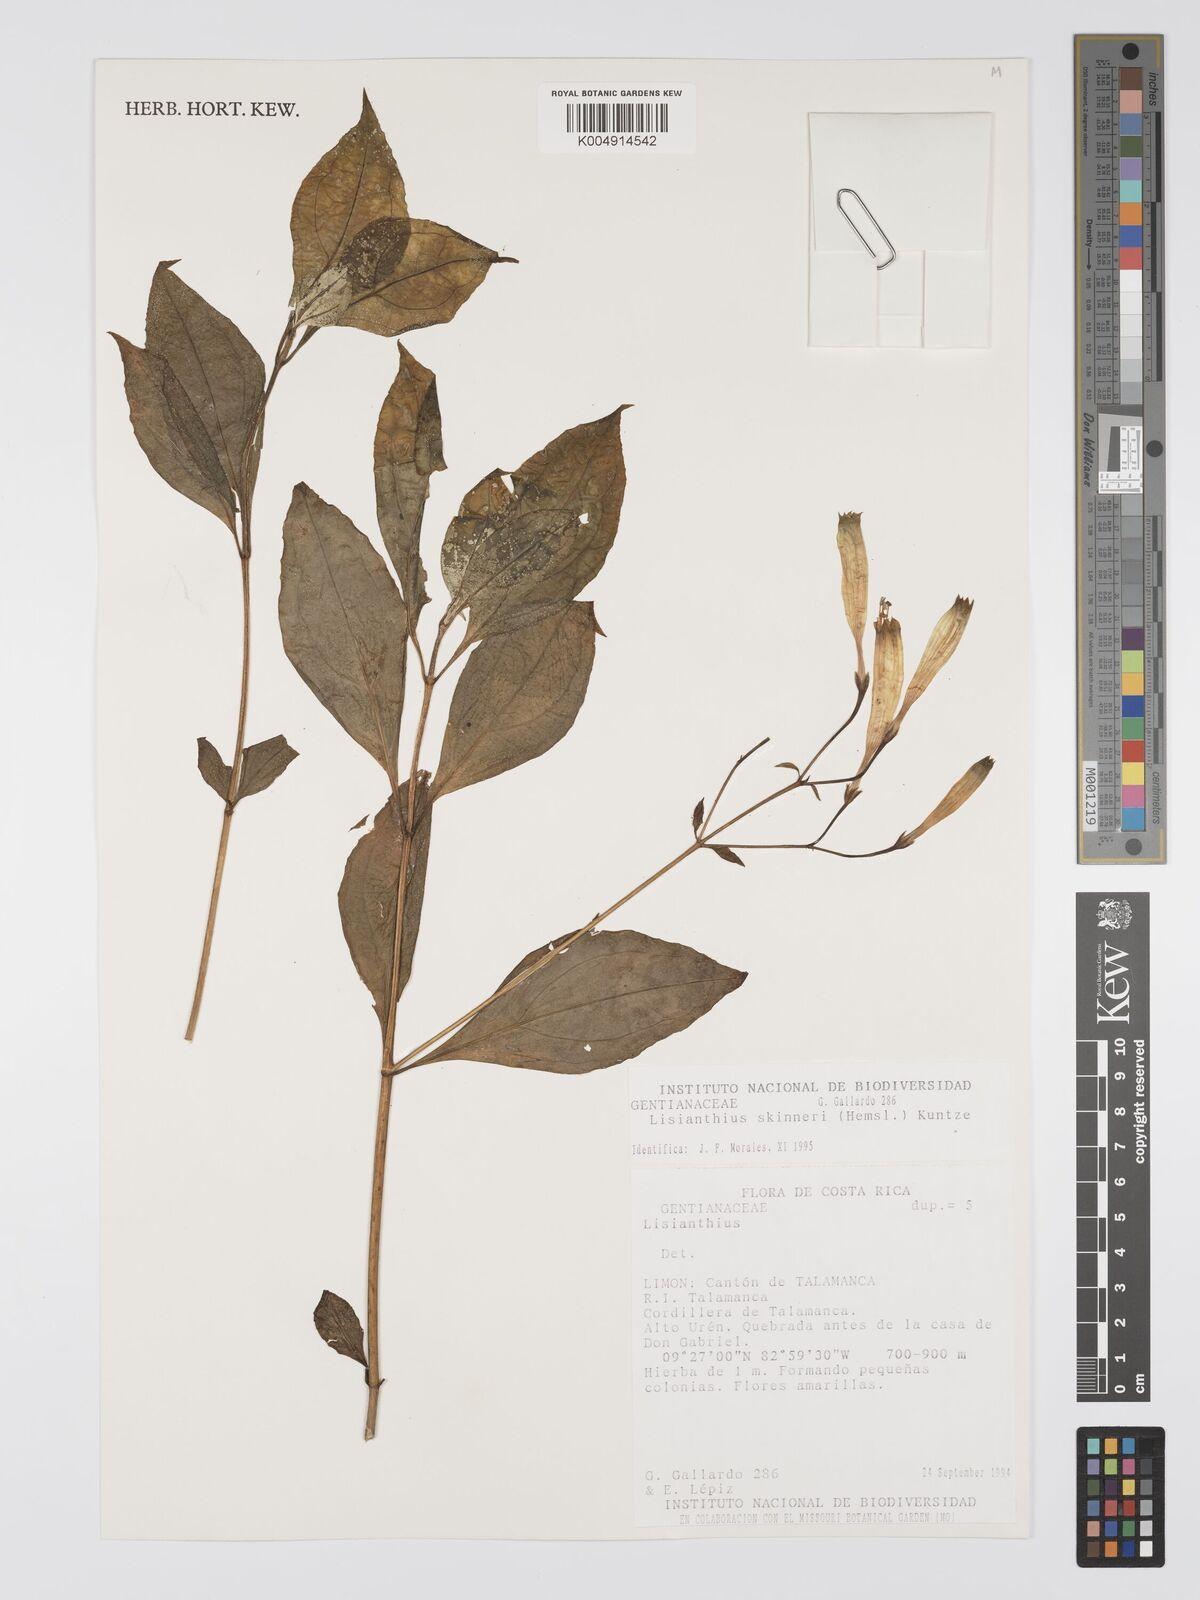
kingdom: Plantae
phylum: Tracheophyta
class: Magnoliopsida
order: Gentianales
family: Gentianaceae
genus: Lisianthus
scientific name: Lisianthus skinneri
